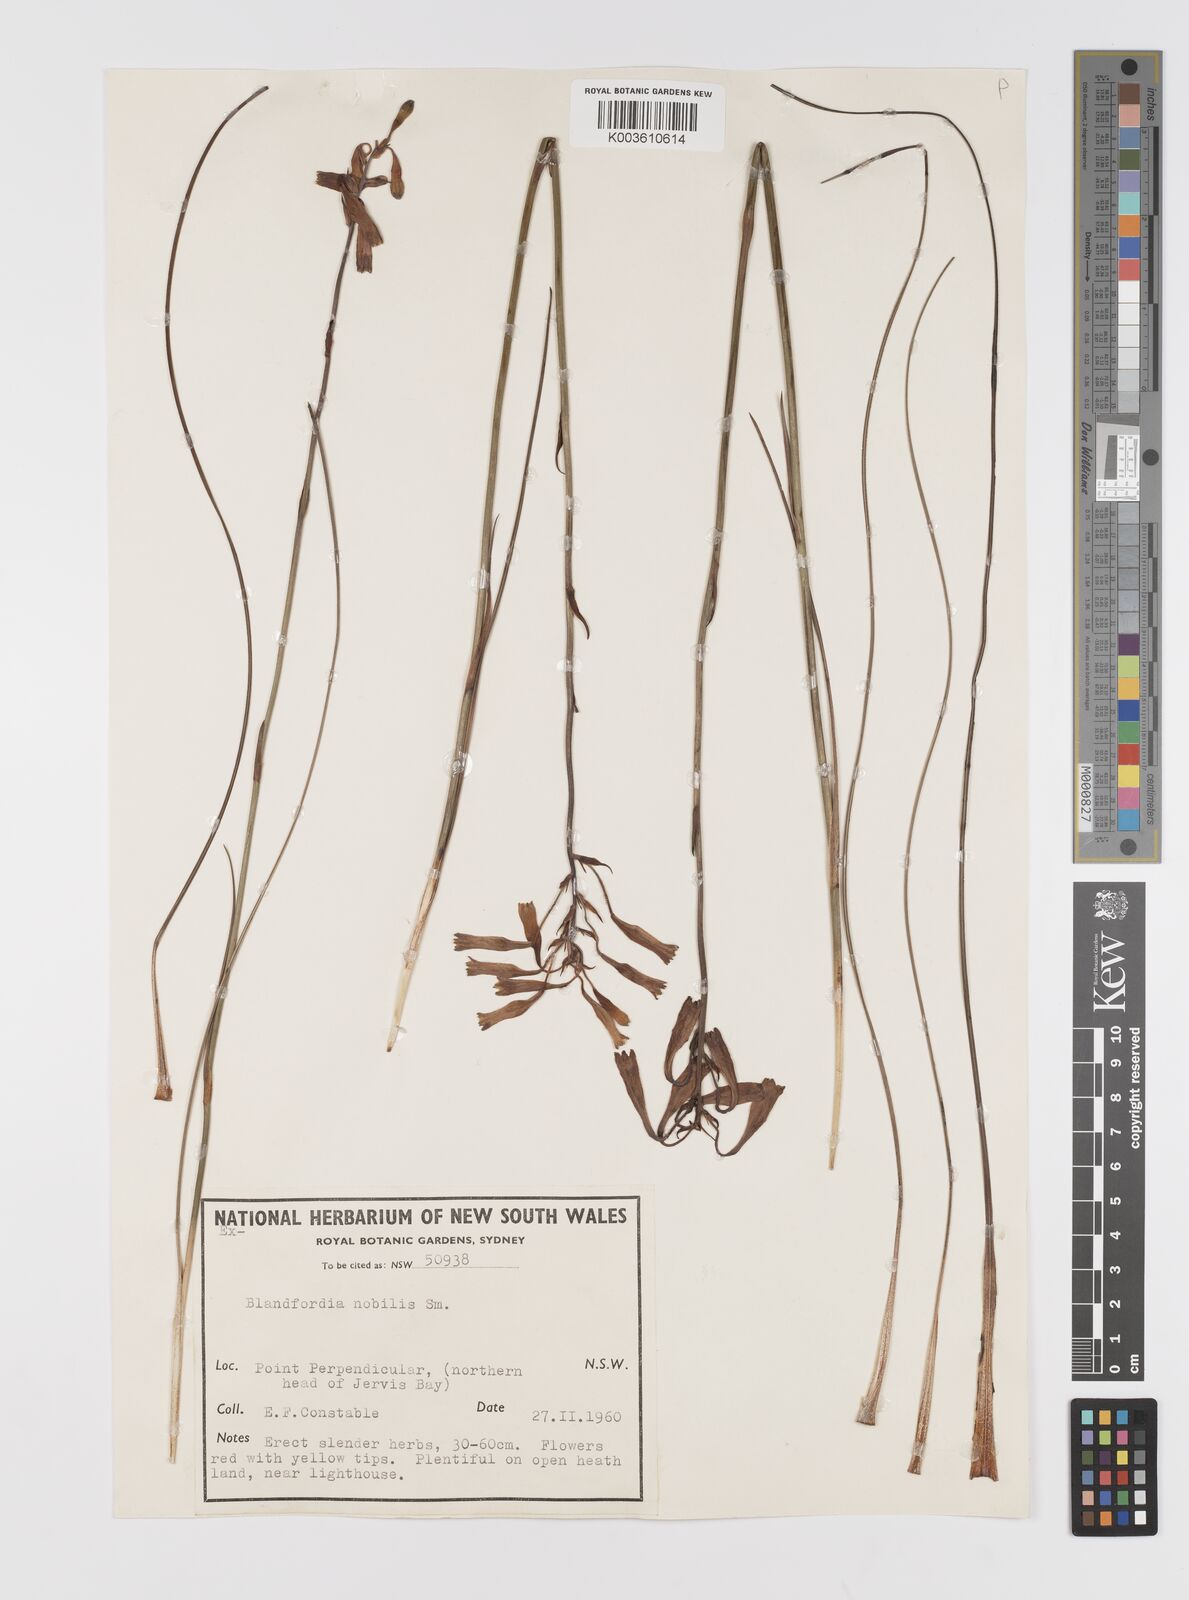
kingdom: Plantae
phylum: Tracheophyta
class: Liliopsida
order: Asparagales
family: Blandfordiaceae
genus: Blandfordia
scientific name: Blandfordia nobilis
